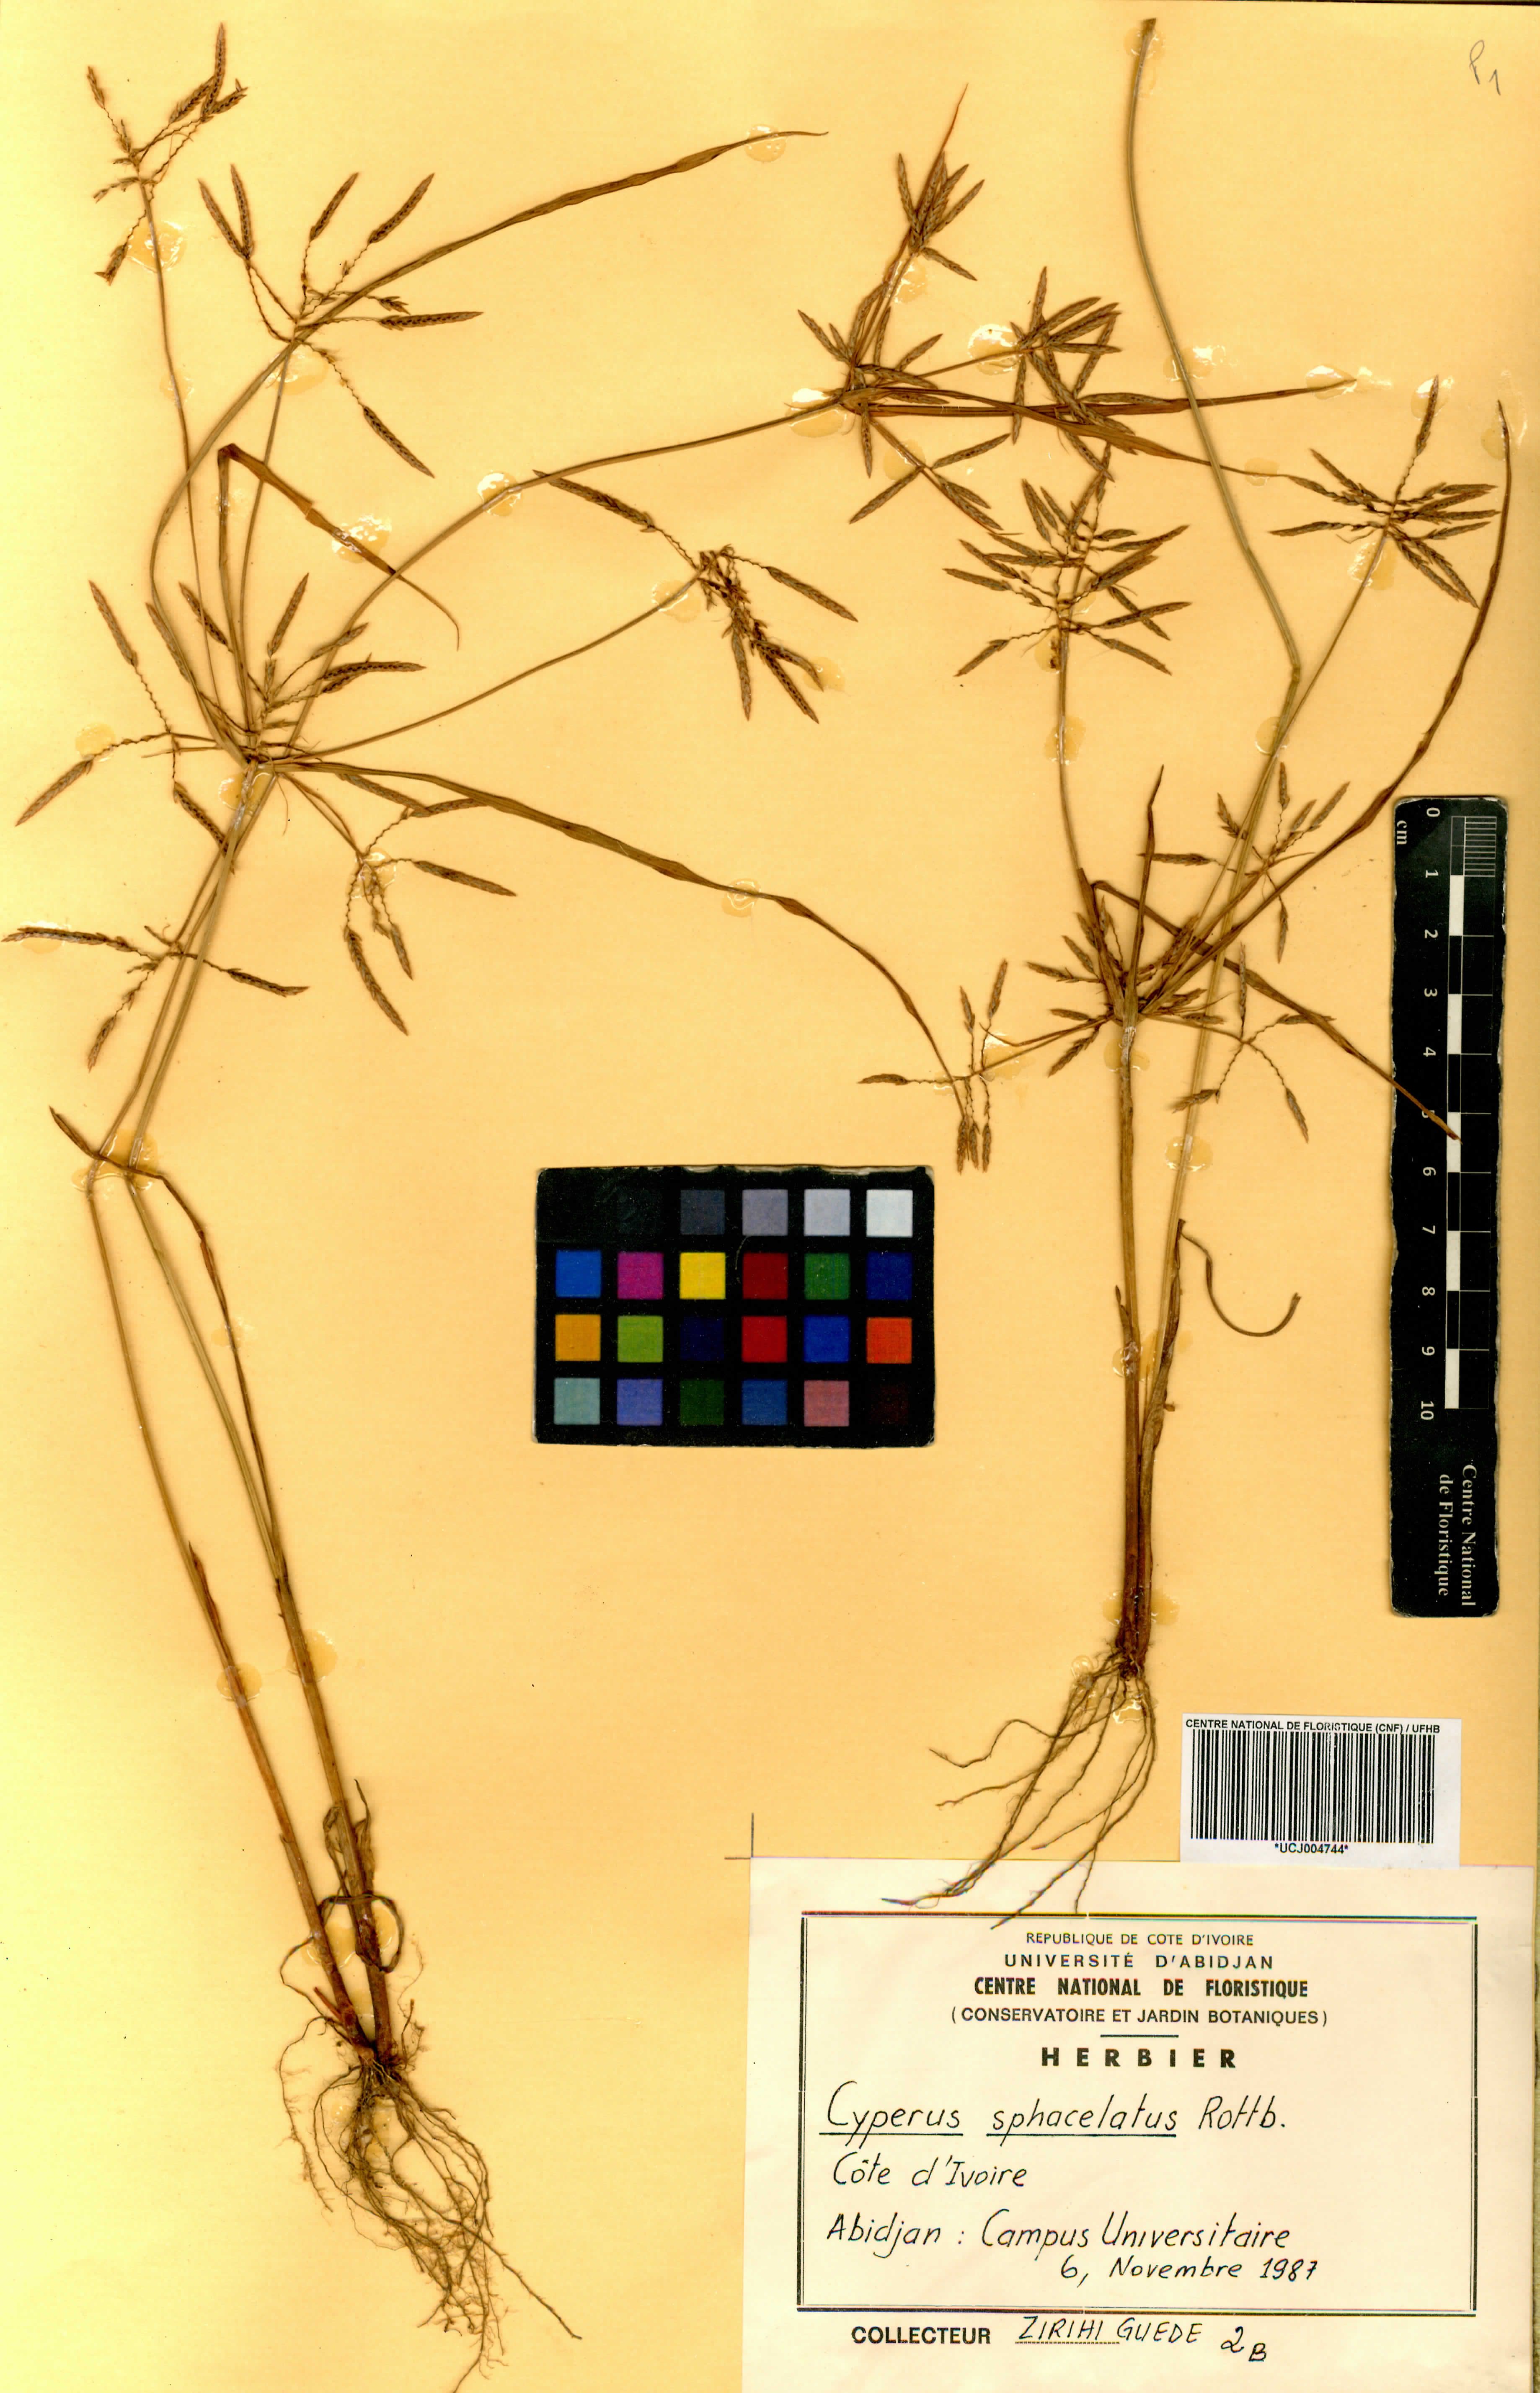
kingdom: Plantae
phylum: Tracheophyta
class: Liliopsida
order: Poales
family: Cyperaceae
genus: Cyperus
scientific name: Cyperus sphacelatus
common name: Roadside flatsedge
